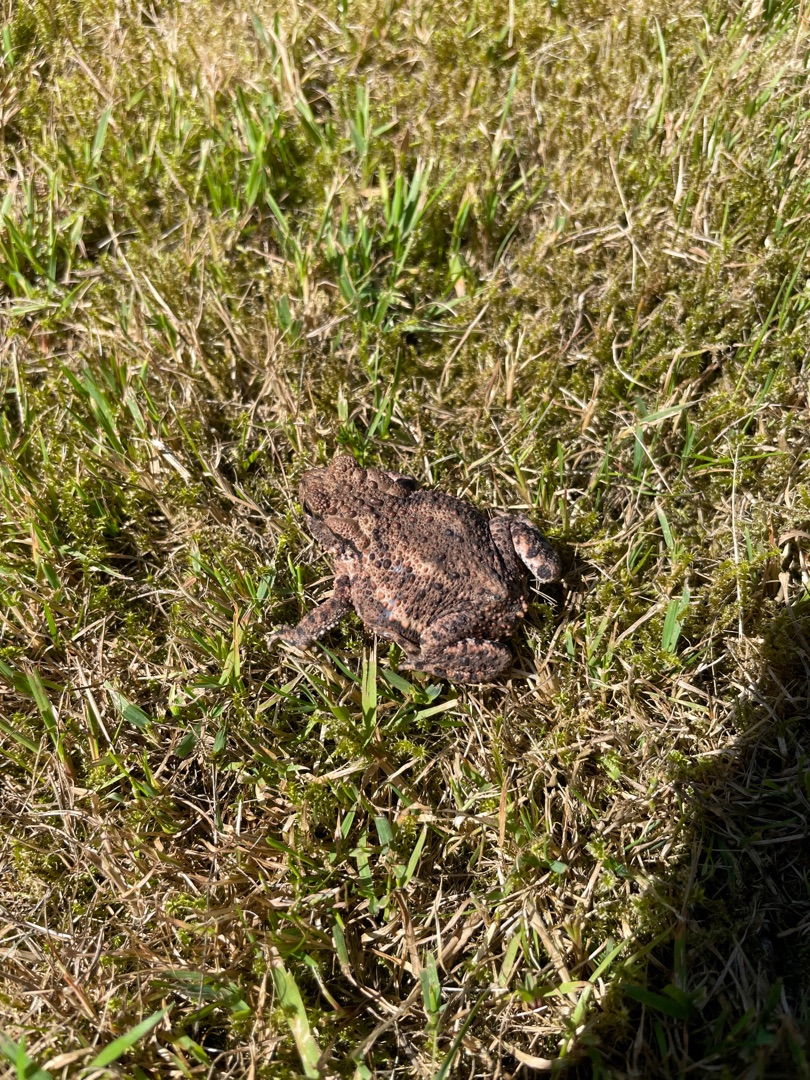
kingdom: Animalia
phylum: Chordata
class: Amphibia
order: Anura
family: Bufonidae
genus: Bufo
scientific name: Bufo bufo
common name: Skrubtudse
